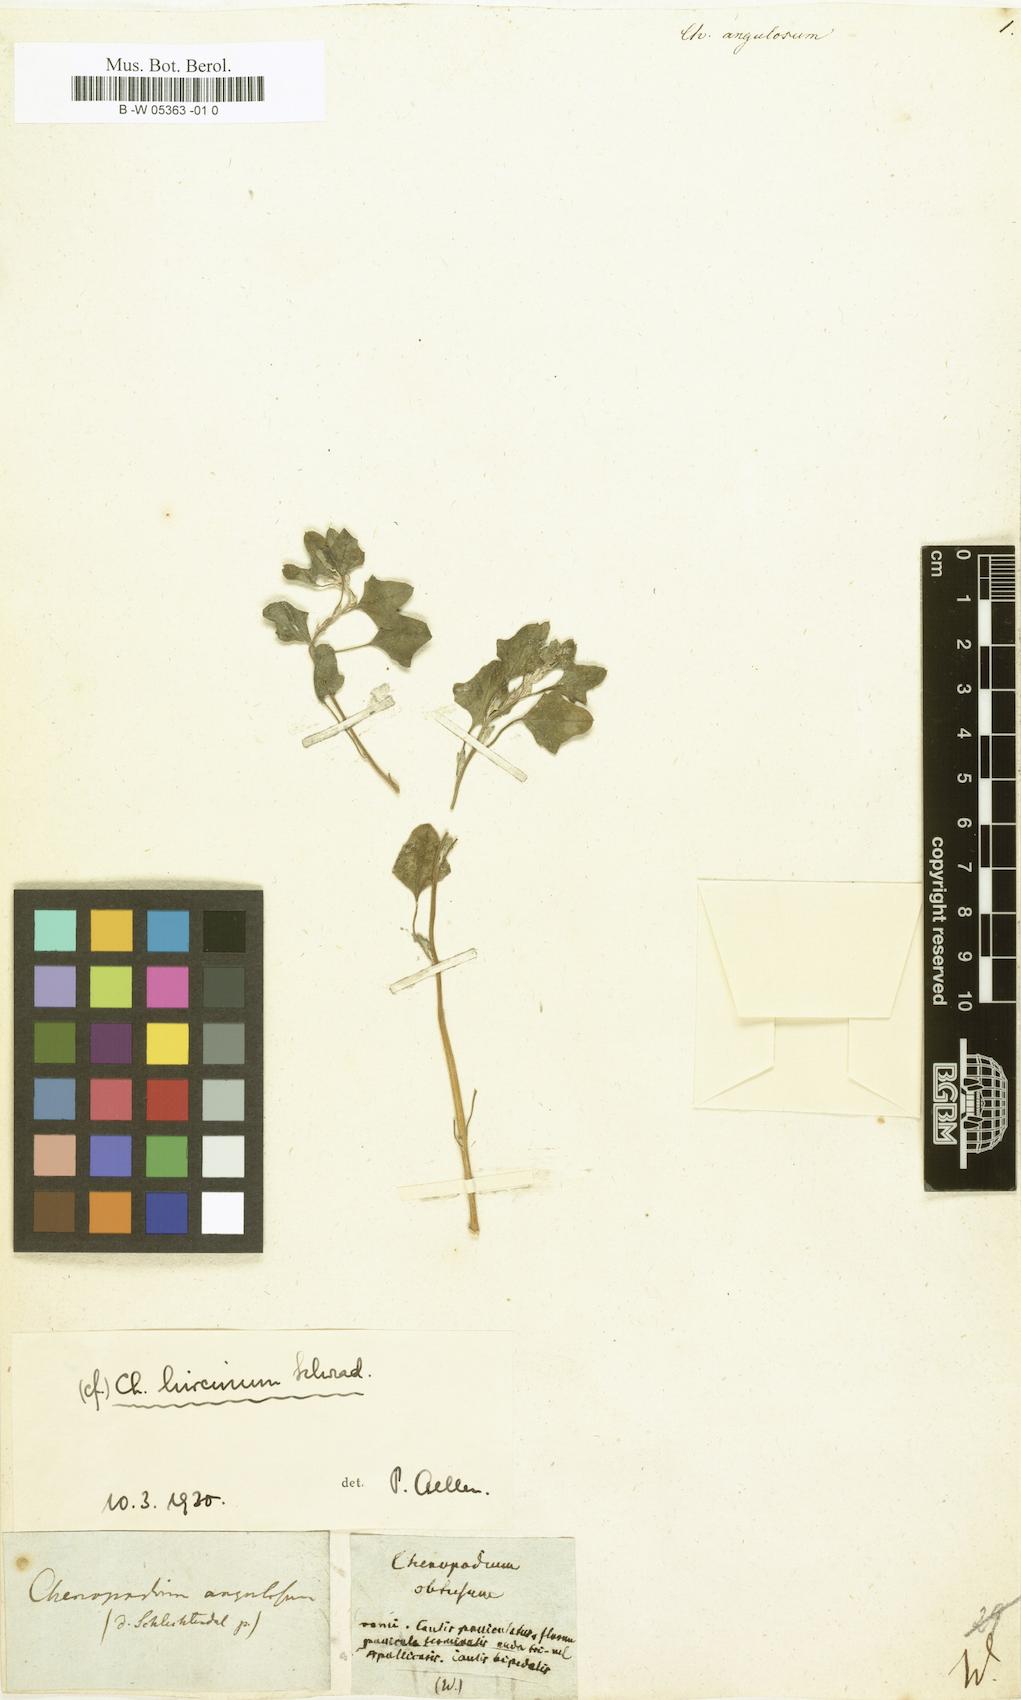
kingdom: Plantae
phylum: Tracheophyta
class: Magnoliopsida
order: Caryophyllales
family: Amaranthaceae
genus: Chenopodiastrum
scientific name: Chenopodiastrum hybridum
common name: Mapleleaf goosefoot
